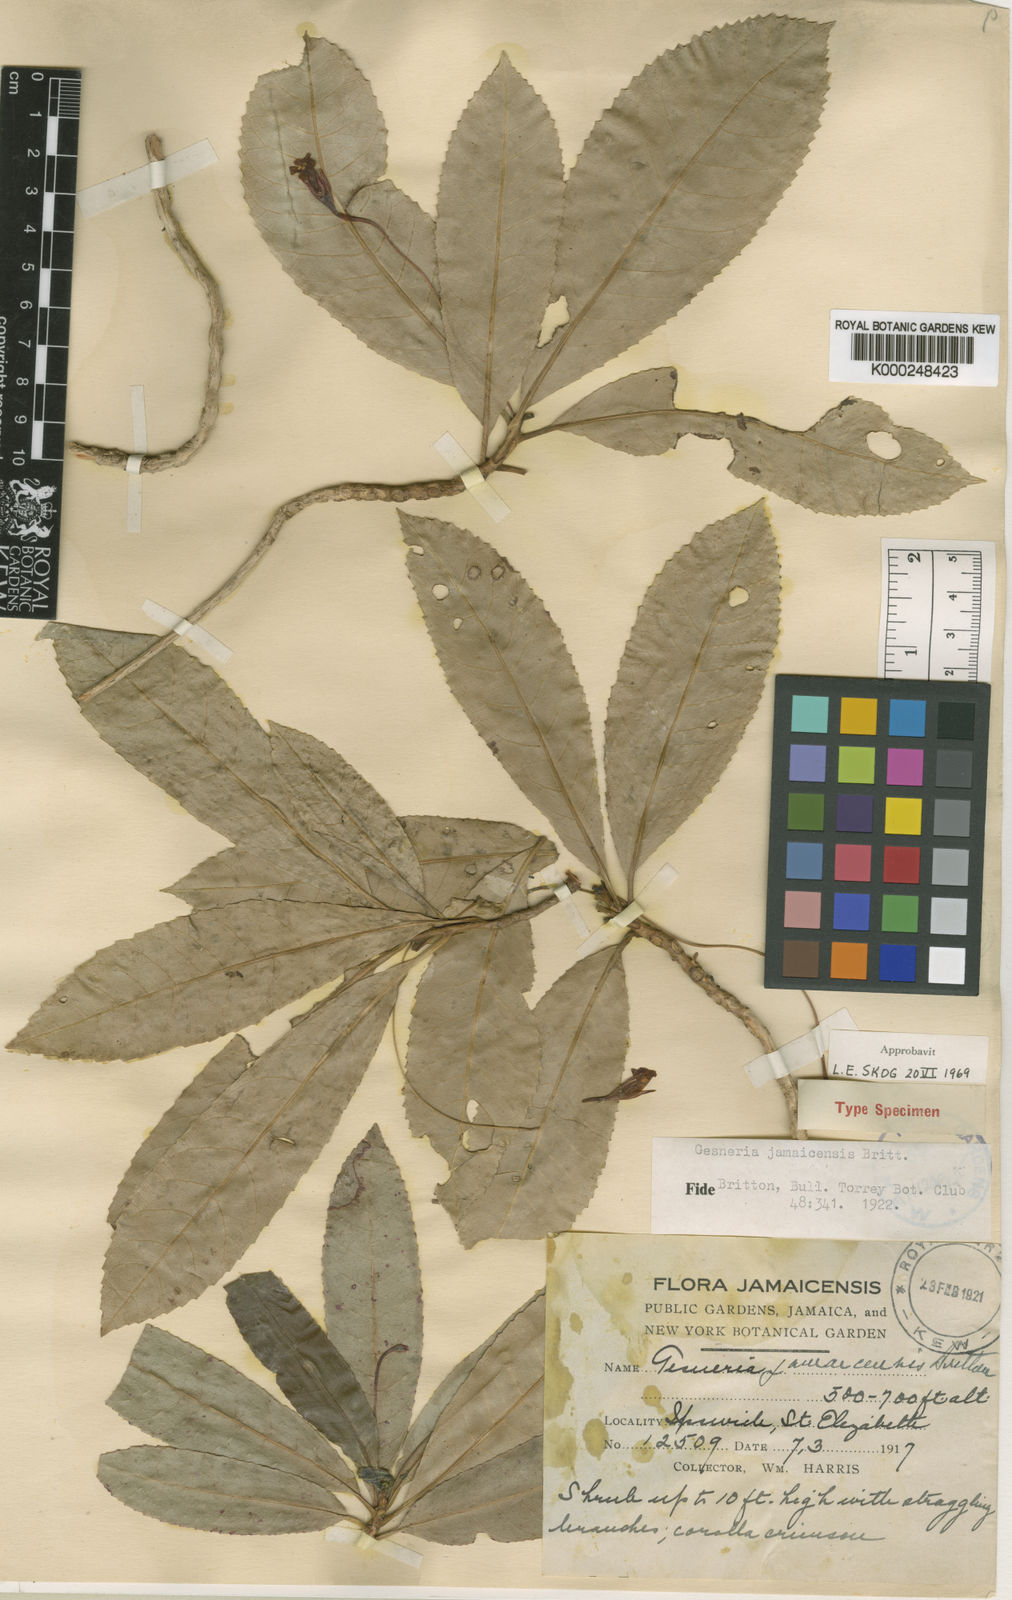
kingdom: Plantae
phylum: Tracheophyta
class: Magnoliopsida
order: Lamiales
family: Gesneriaceae
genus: Gesneria
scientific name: Gesneria jamaicensis
